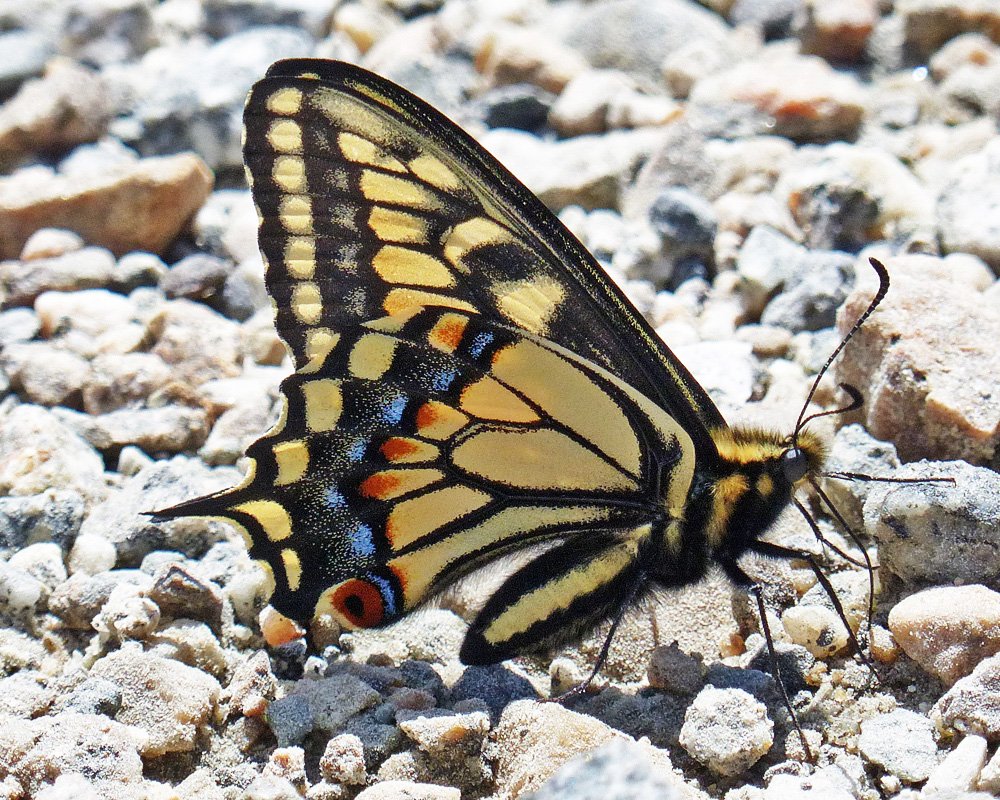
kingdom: Animalia
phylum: Arthropoda
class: Insecta
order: Lepidoptera
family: Papilionidae
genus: Papilio
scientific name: Papilio zelicaon
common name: Anise Swallowtail
